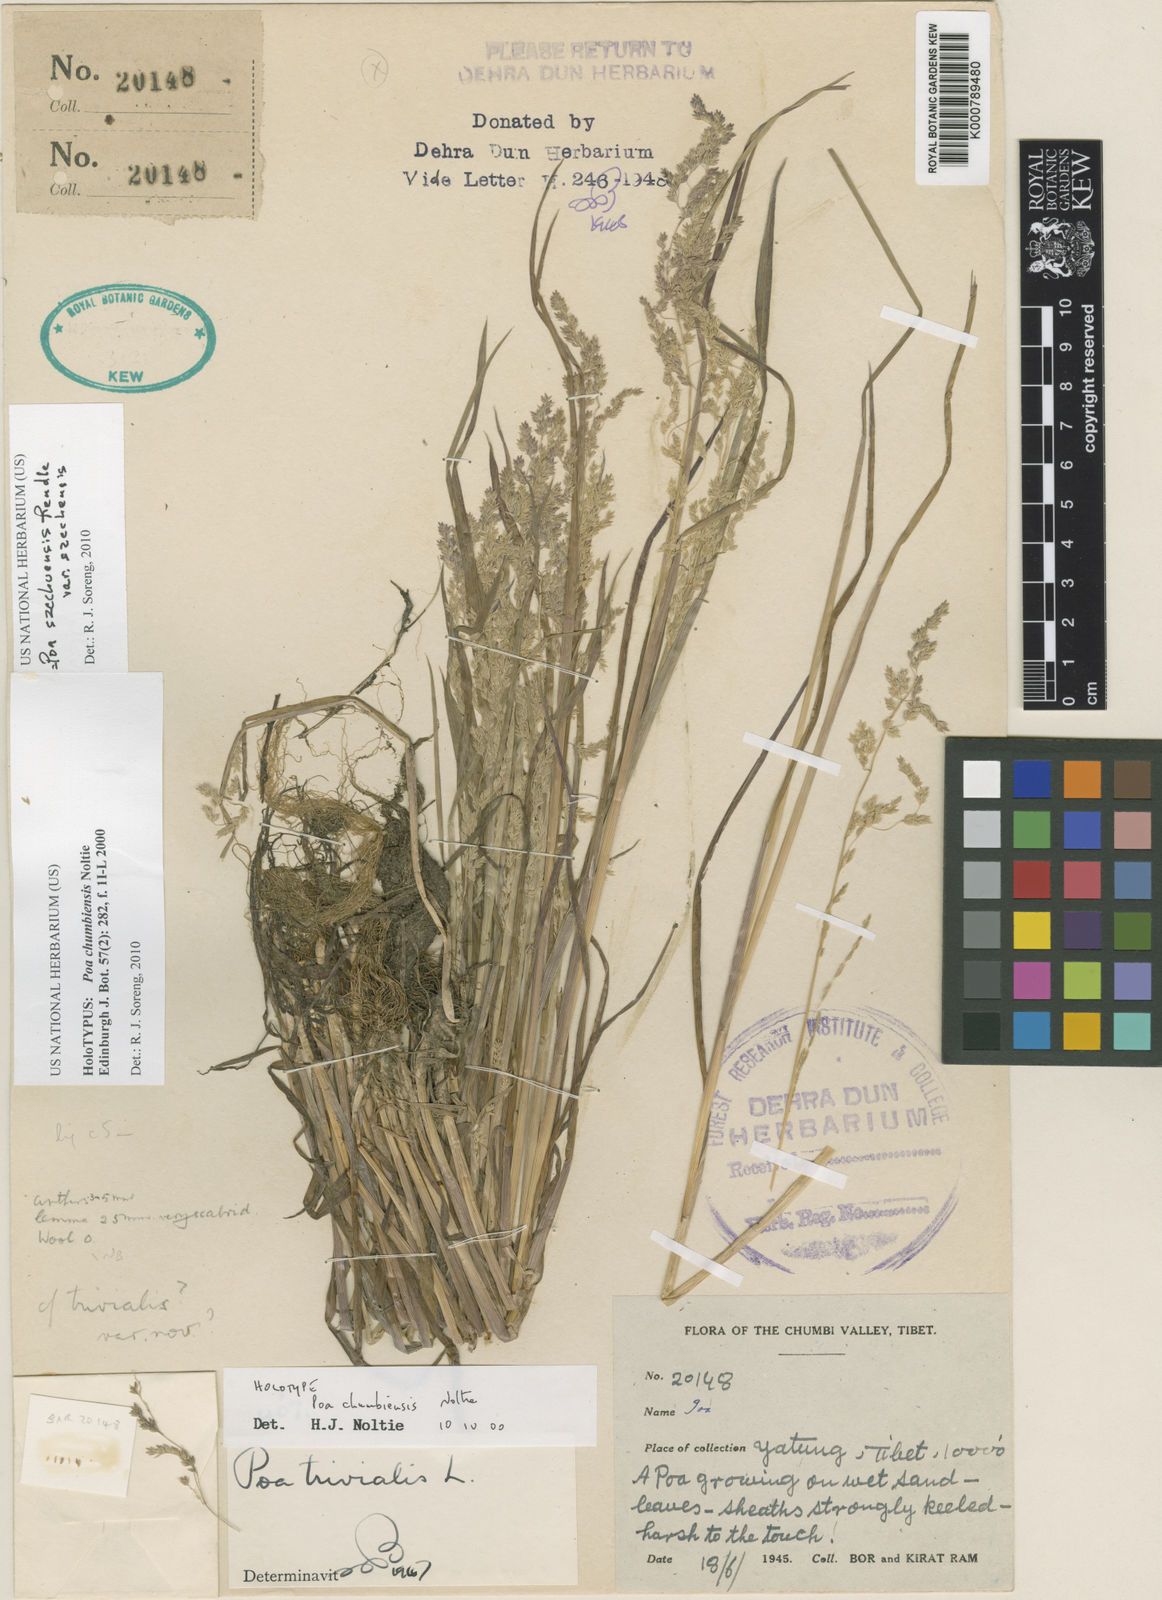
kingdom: Plantae
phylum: Tracheophyta
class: Liliopsida
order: Poales
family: Poaceae
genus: Poa
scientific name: Poa szechuensis
